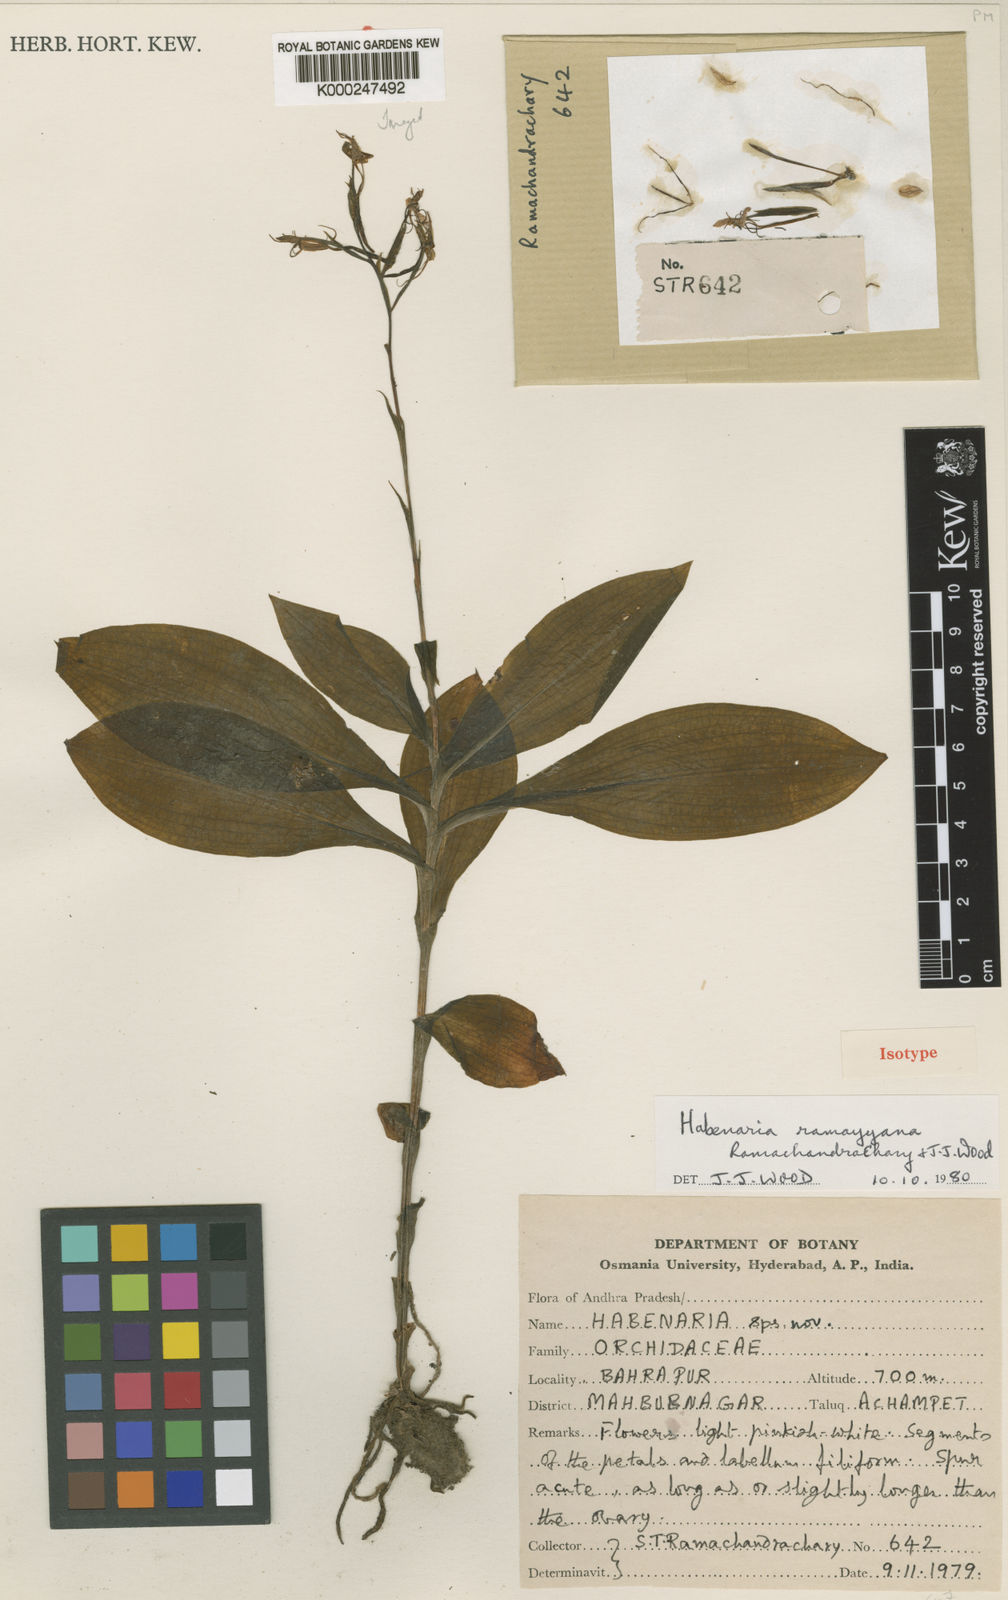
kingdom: Plantae
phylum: Tracheophyta
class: Liliopsida
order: Asparagales
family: Orchidaceae
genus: Habenaria
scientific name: Habenaria ramayyana
